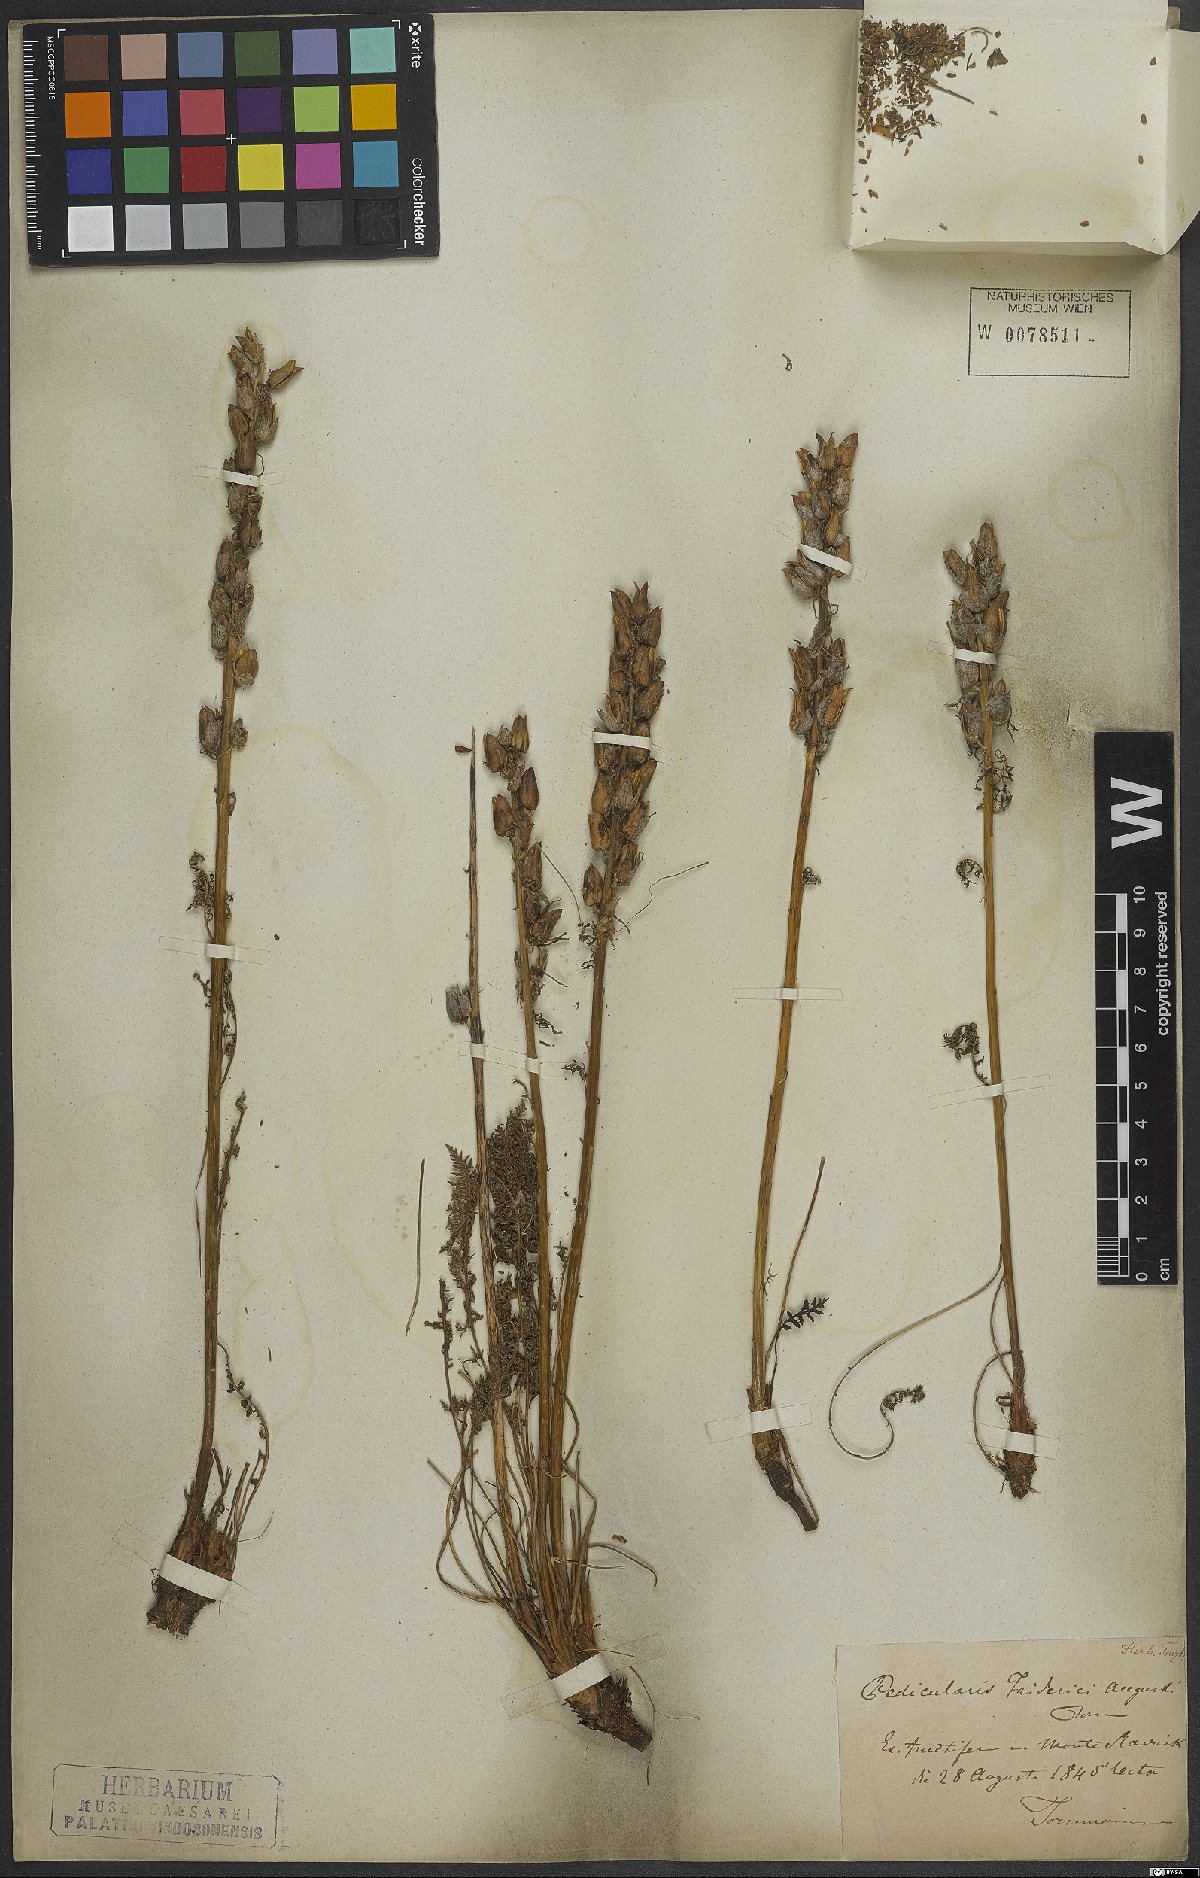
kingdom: Plantae
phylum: Tracheophyta
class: Magnoliopsida
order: Lamiales
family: Orobanchaceae
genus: Pedicularis
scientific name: Pedicularis friderici-augusti
